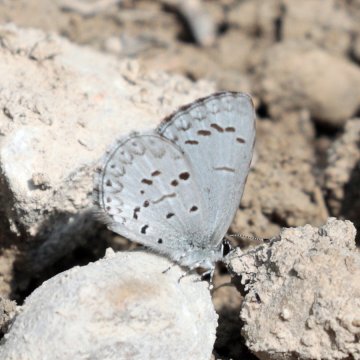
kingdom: Animalia
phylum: Arthropoda
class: Insecta
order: Lepidoptera
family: Lycaenidae
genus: Celastrina
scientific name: Celastrina lucia
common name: Northern Spring Azure
